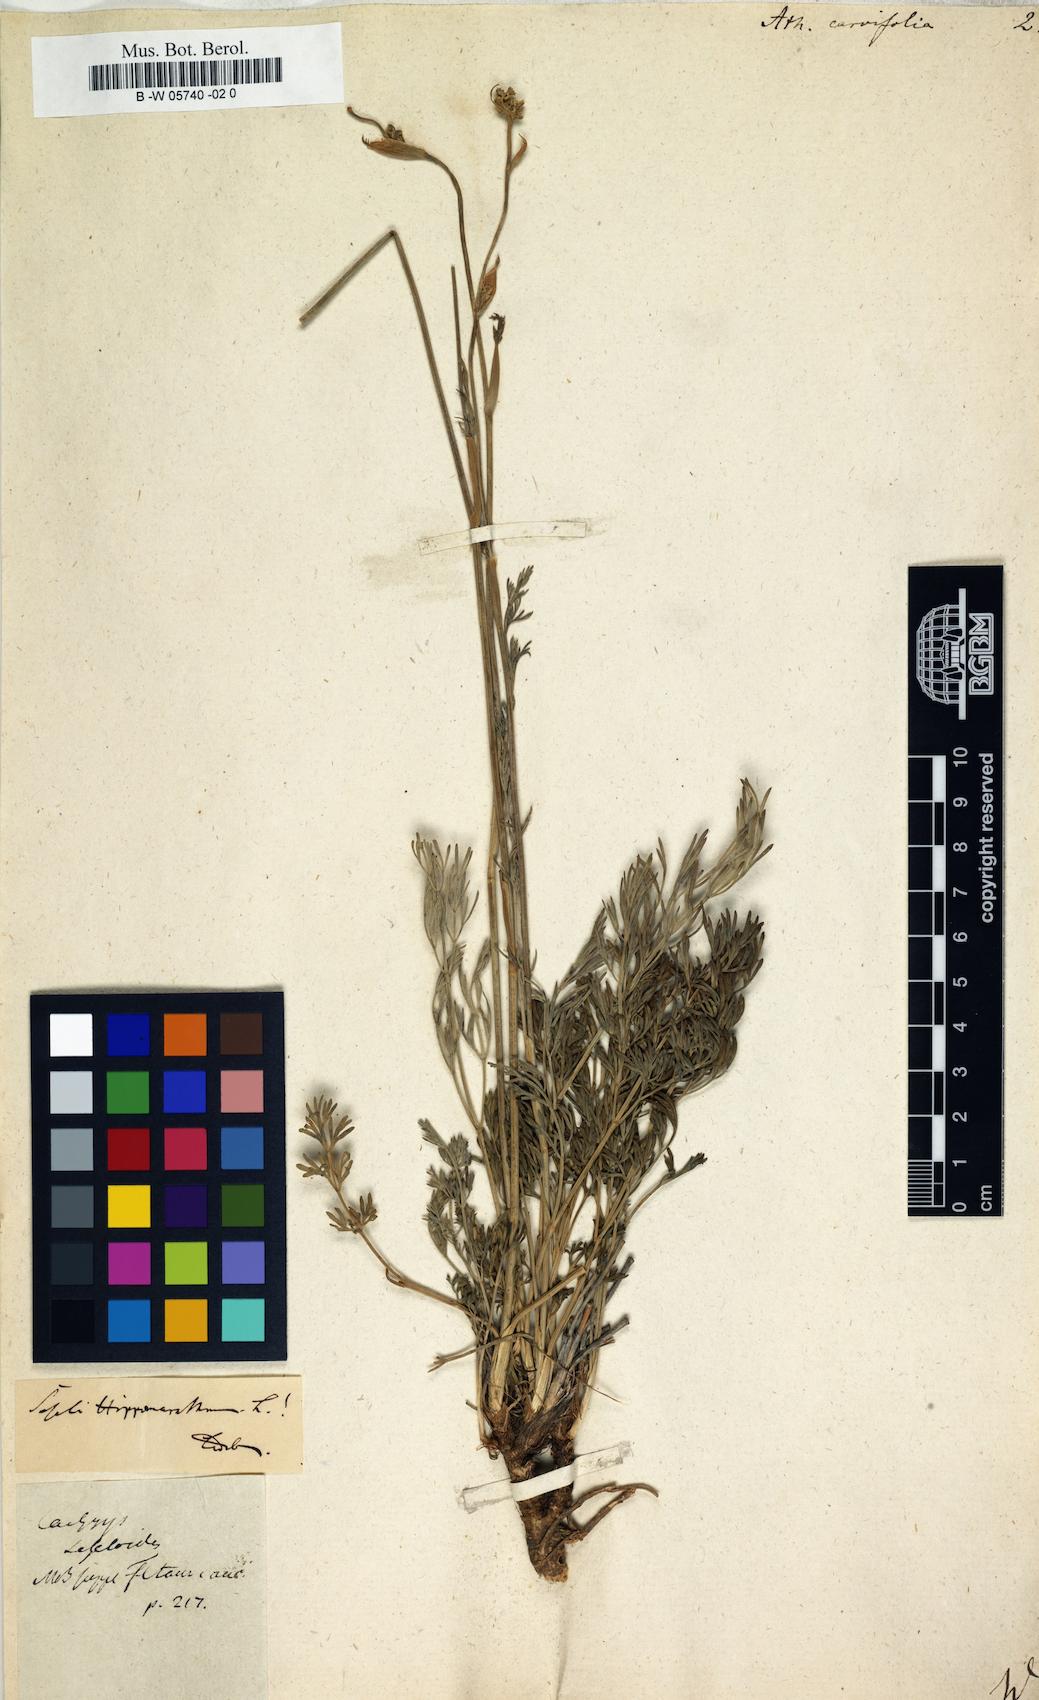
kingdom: Plantae
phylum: Tracheophyta
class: Magnoliopsida
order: Apiales
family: Apiaceae
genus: Athamanta
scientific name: Athamanta carvifolia
